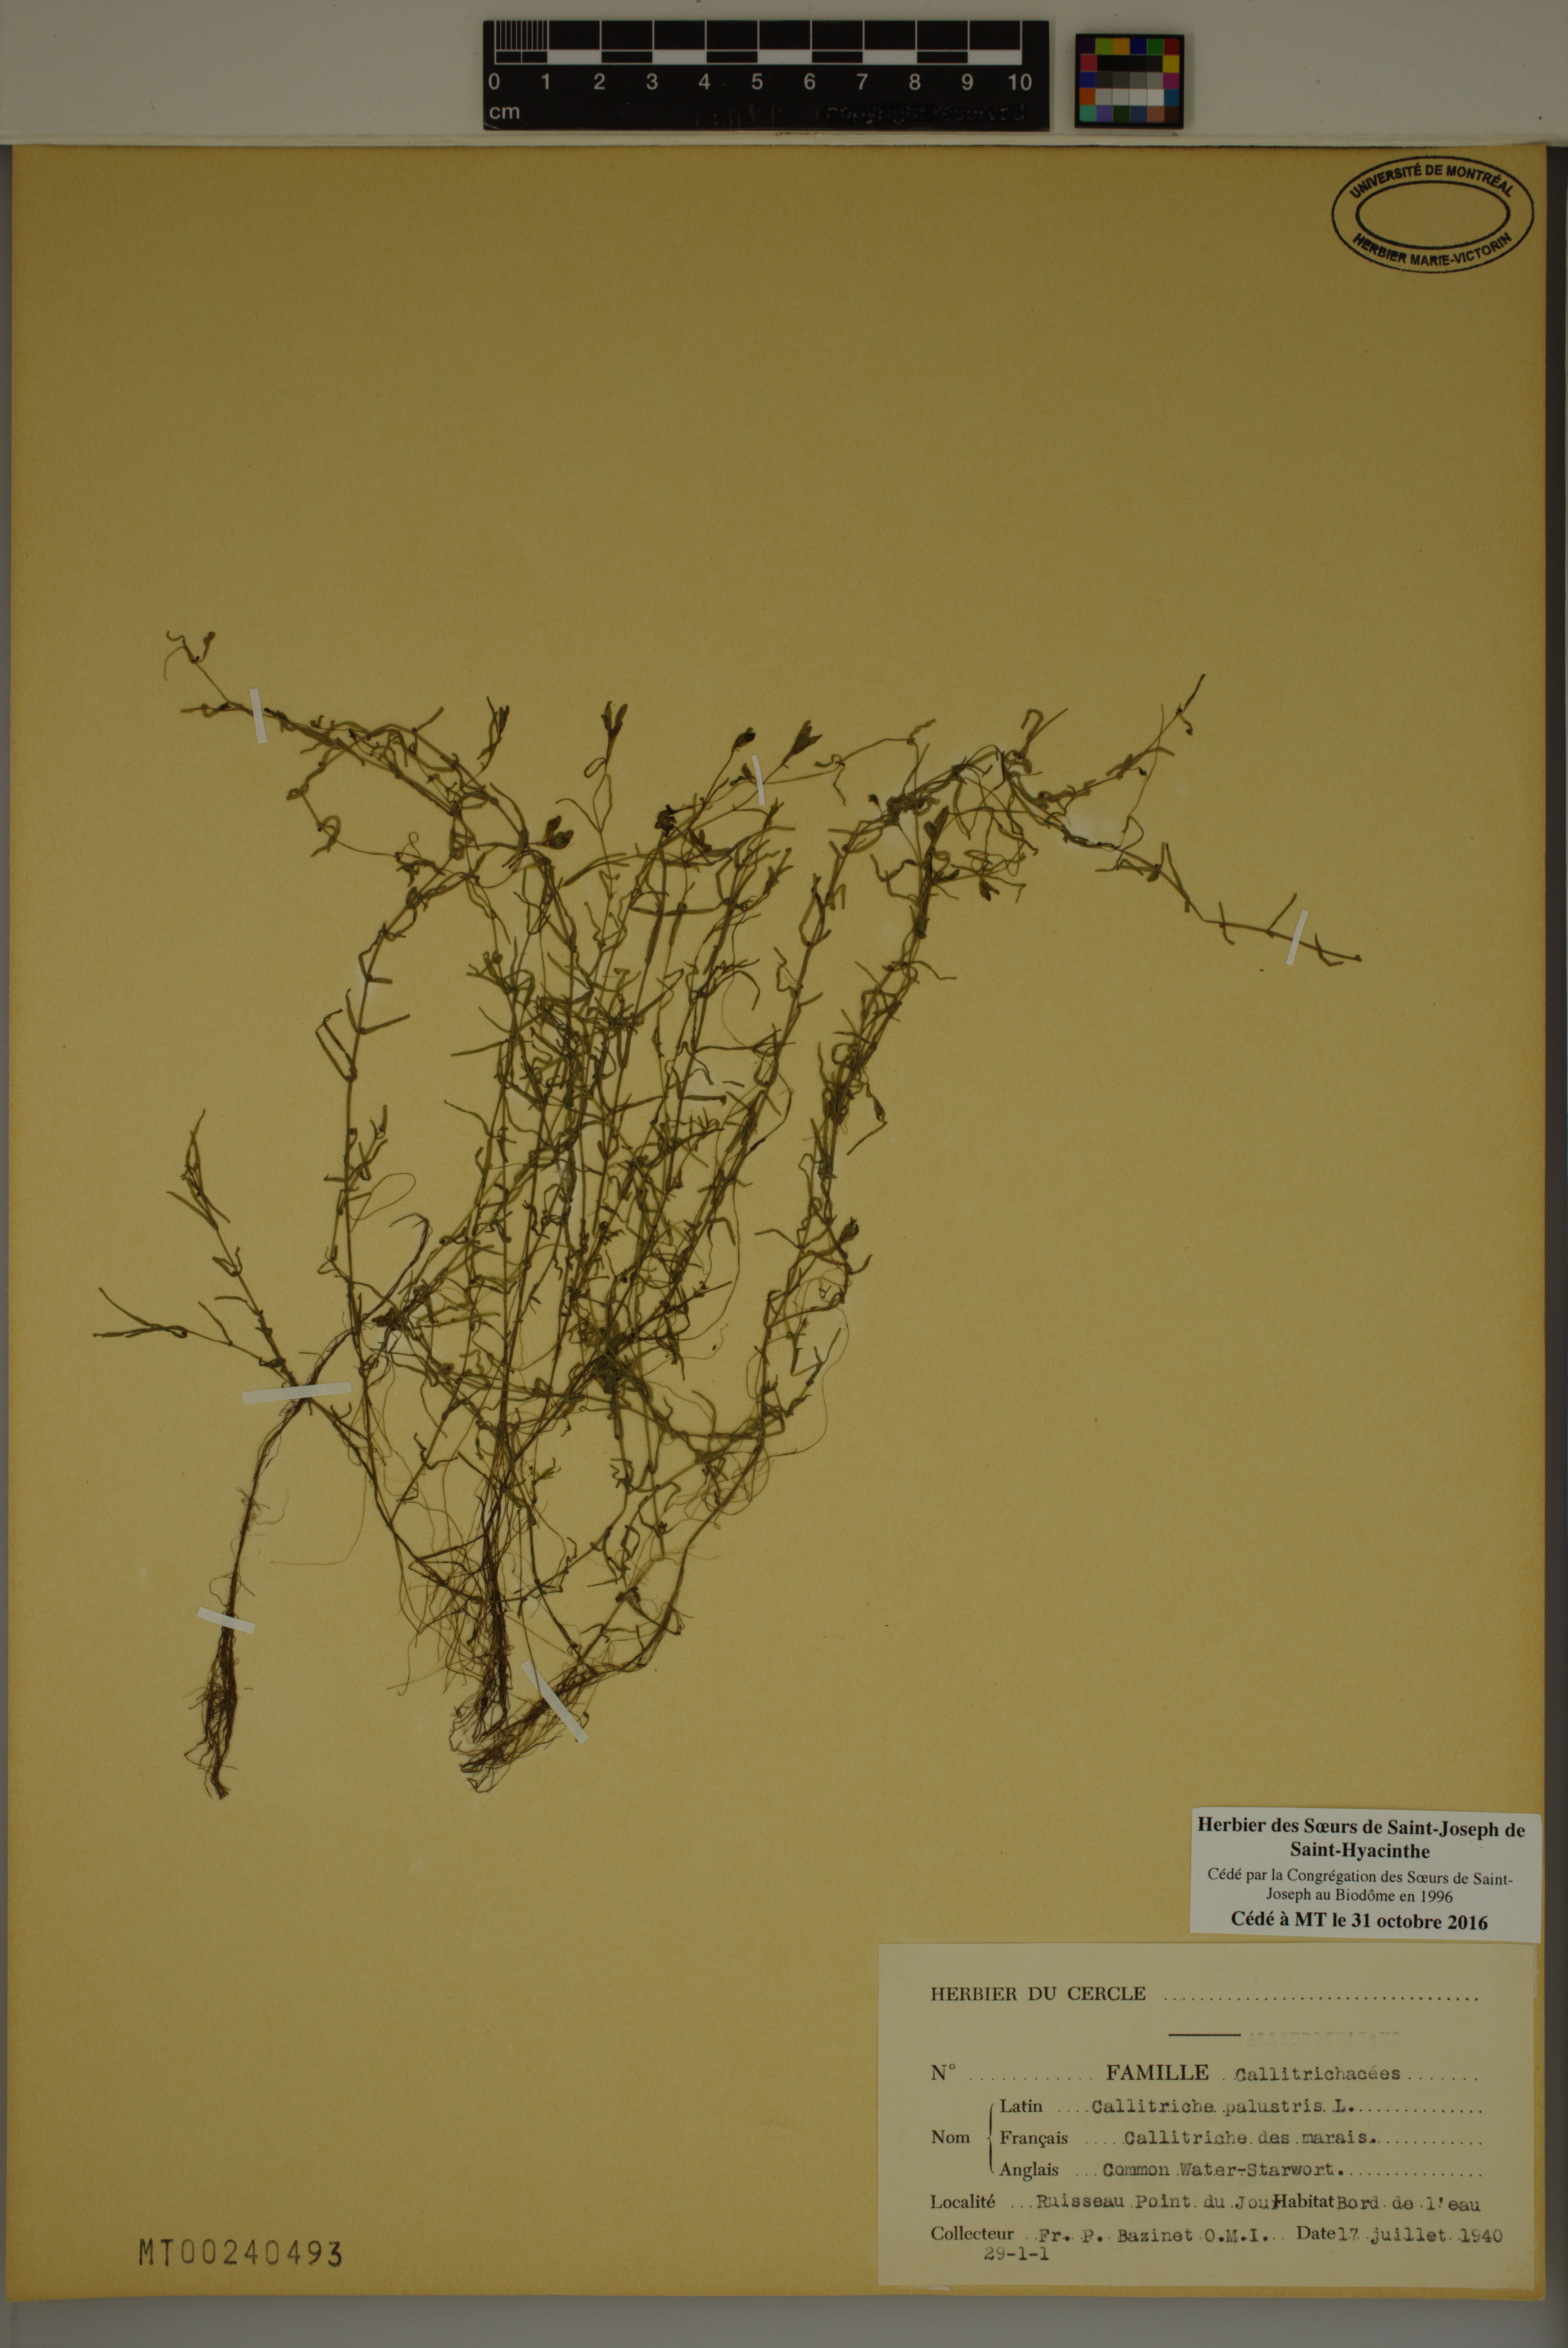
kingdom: Plantae
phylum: Tracheophyta
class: Magnoliopsida
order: Lamiales
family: Plantaginaceae
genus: Callitriche
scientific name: Callitriche palustris
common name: Spring water-starwort
